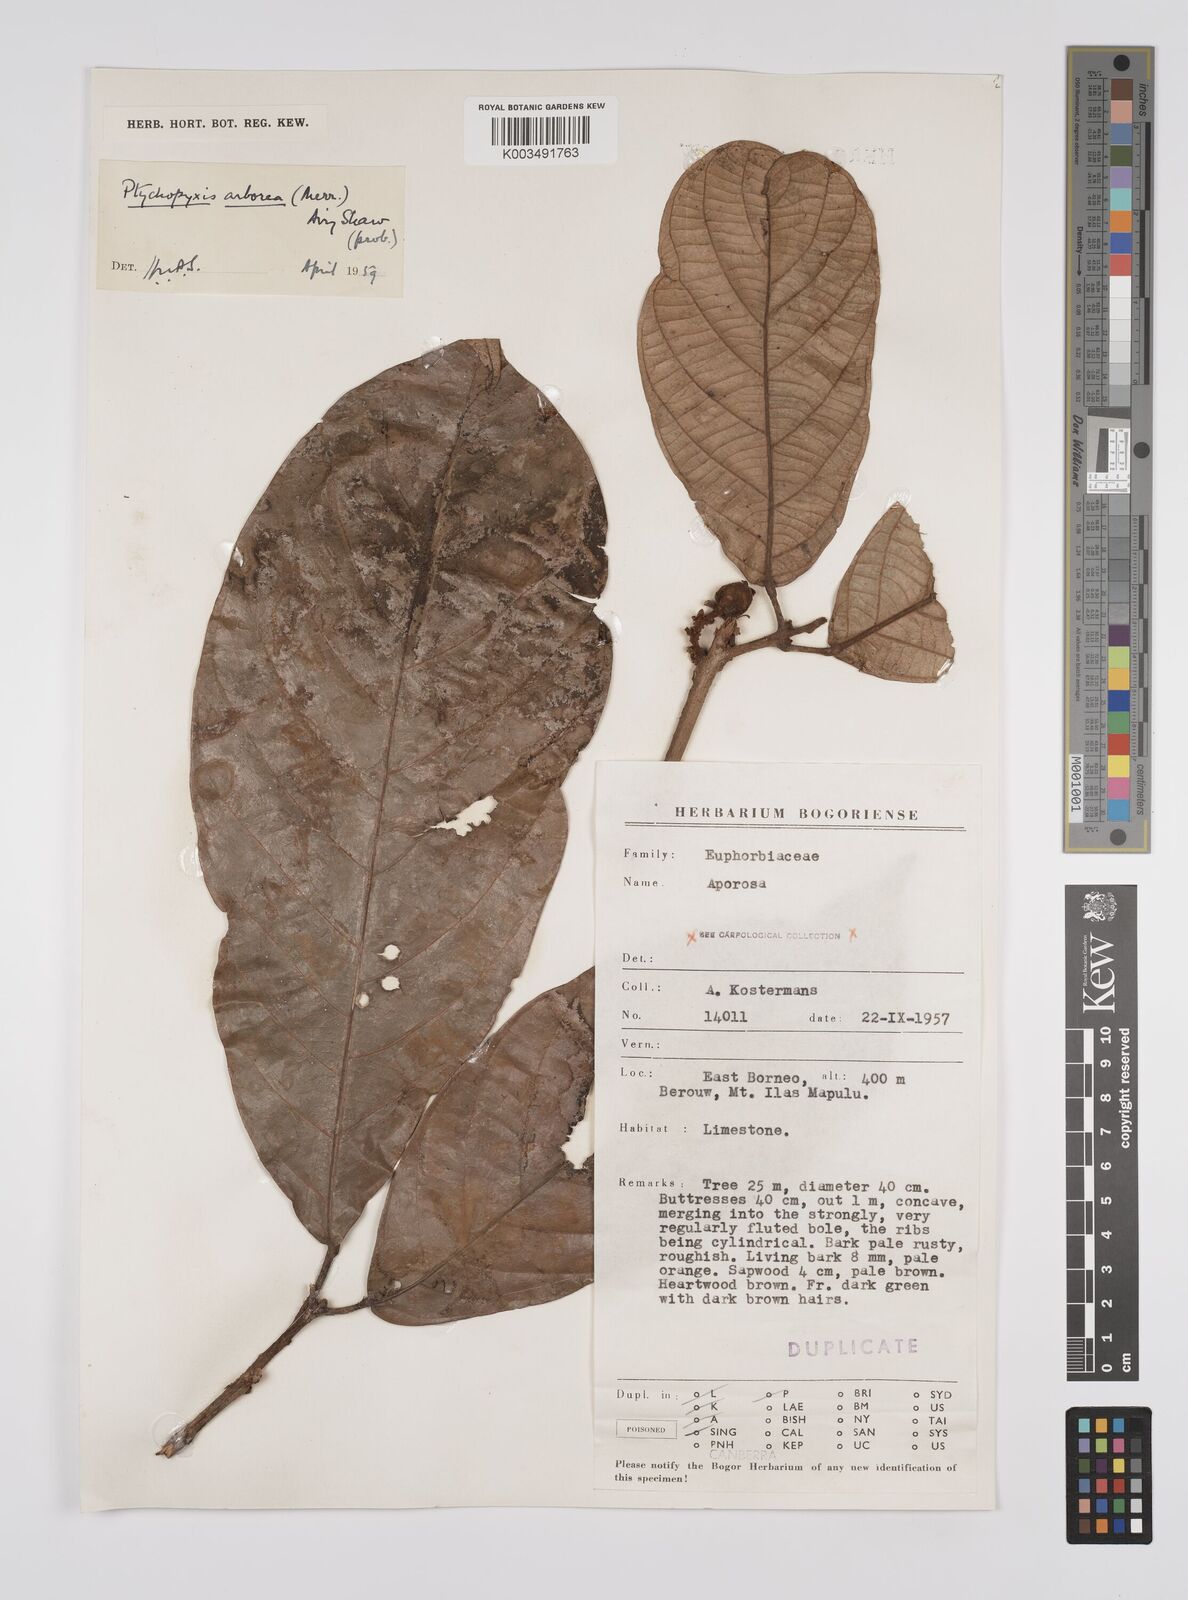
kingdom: Plantae
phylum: Tracheophyta
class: Magnoliopsida
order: Malpighiales
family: Euphorbiaceae
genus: Ptychopyxis
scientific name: Ptychopyxis arborea
